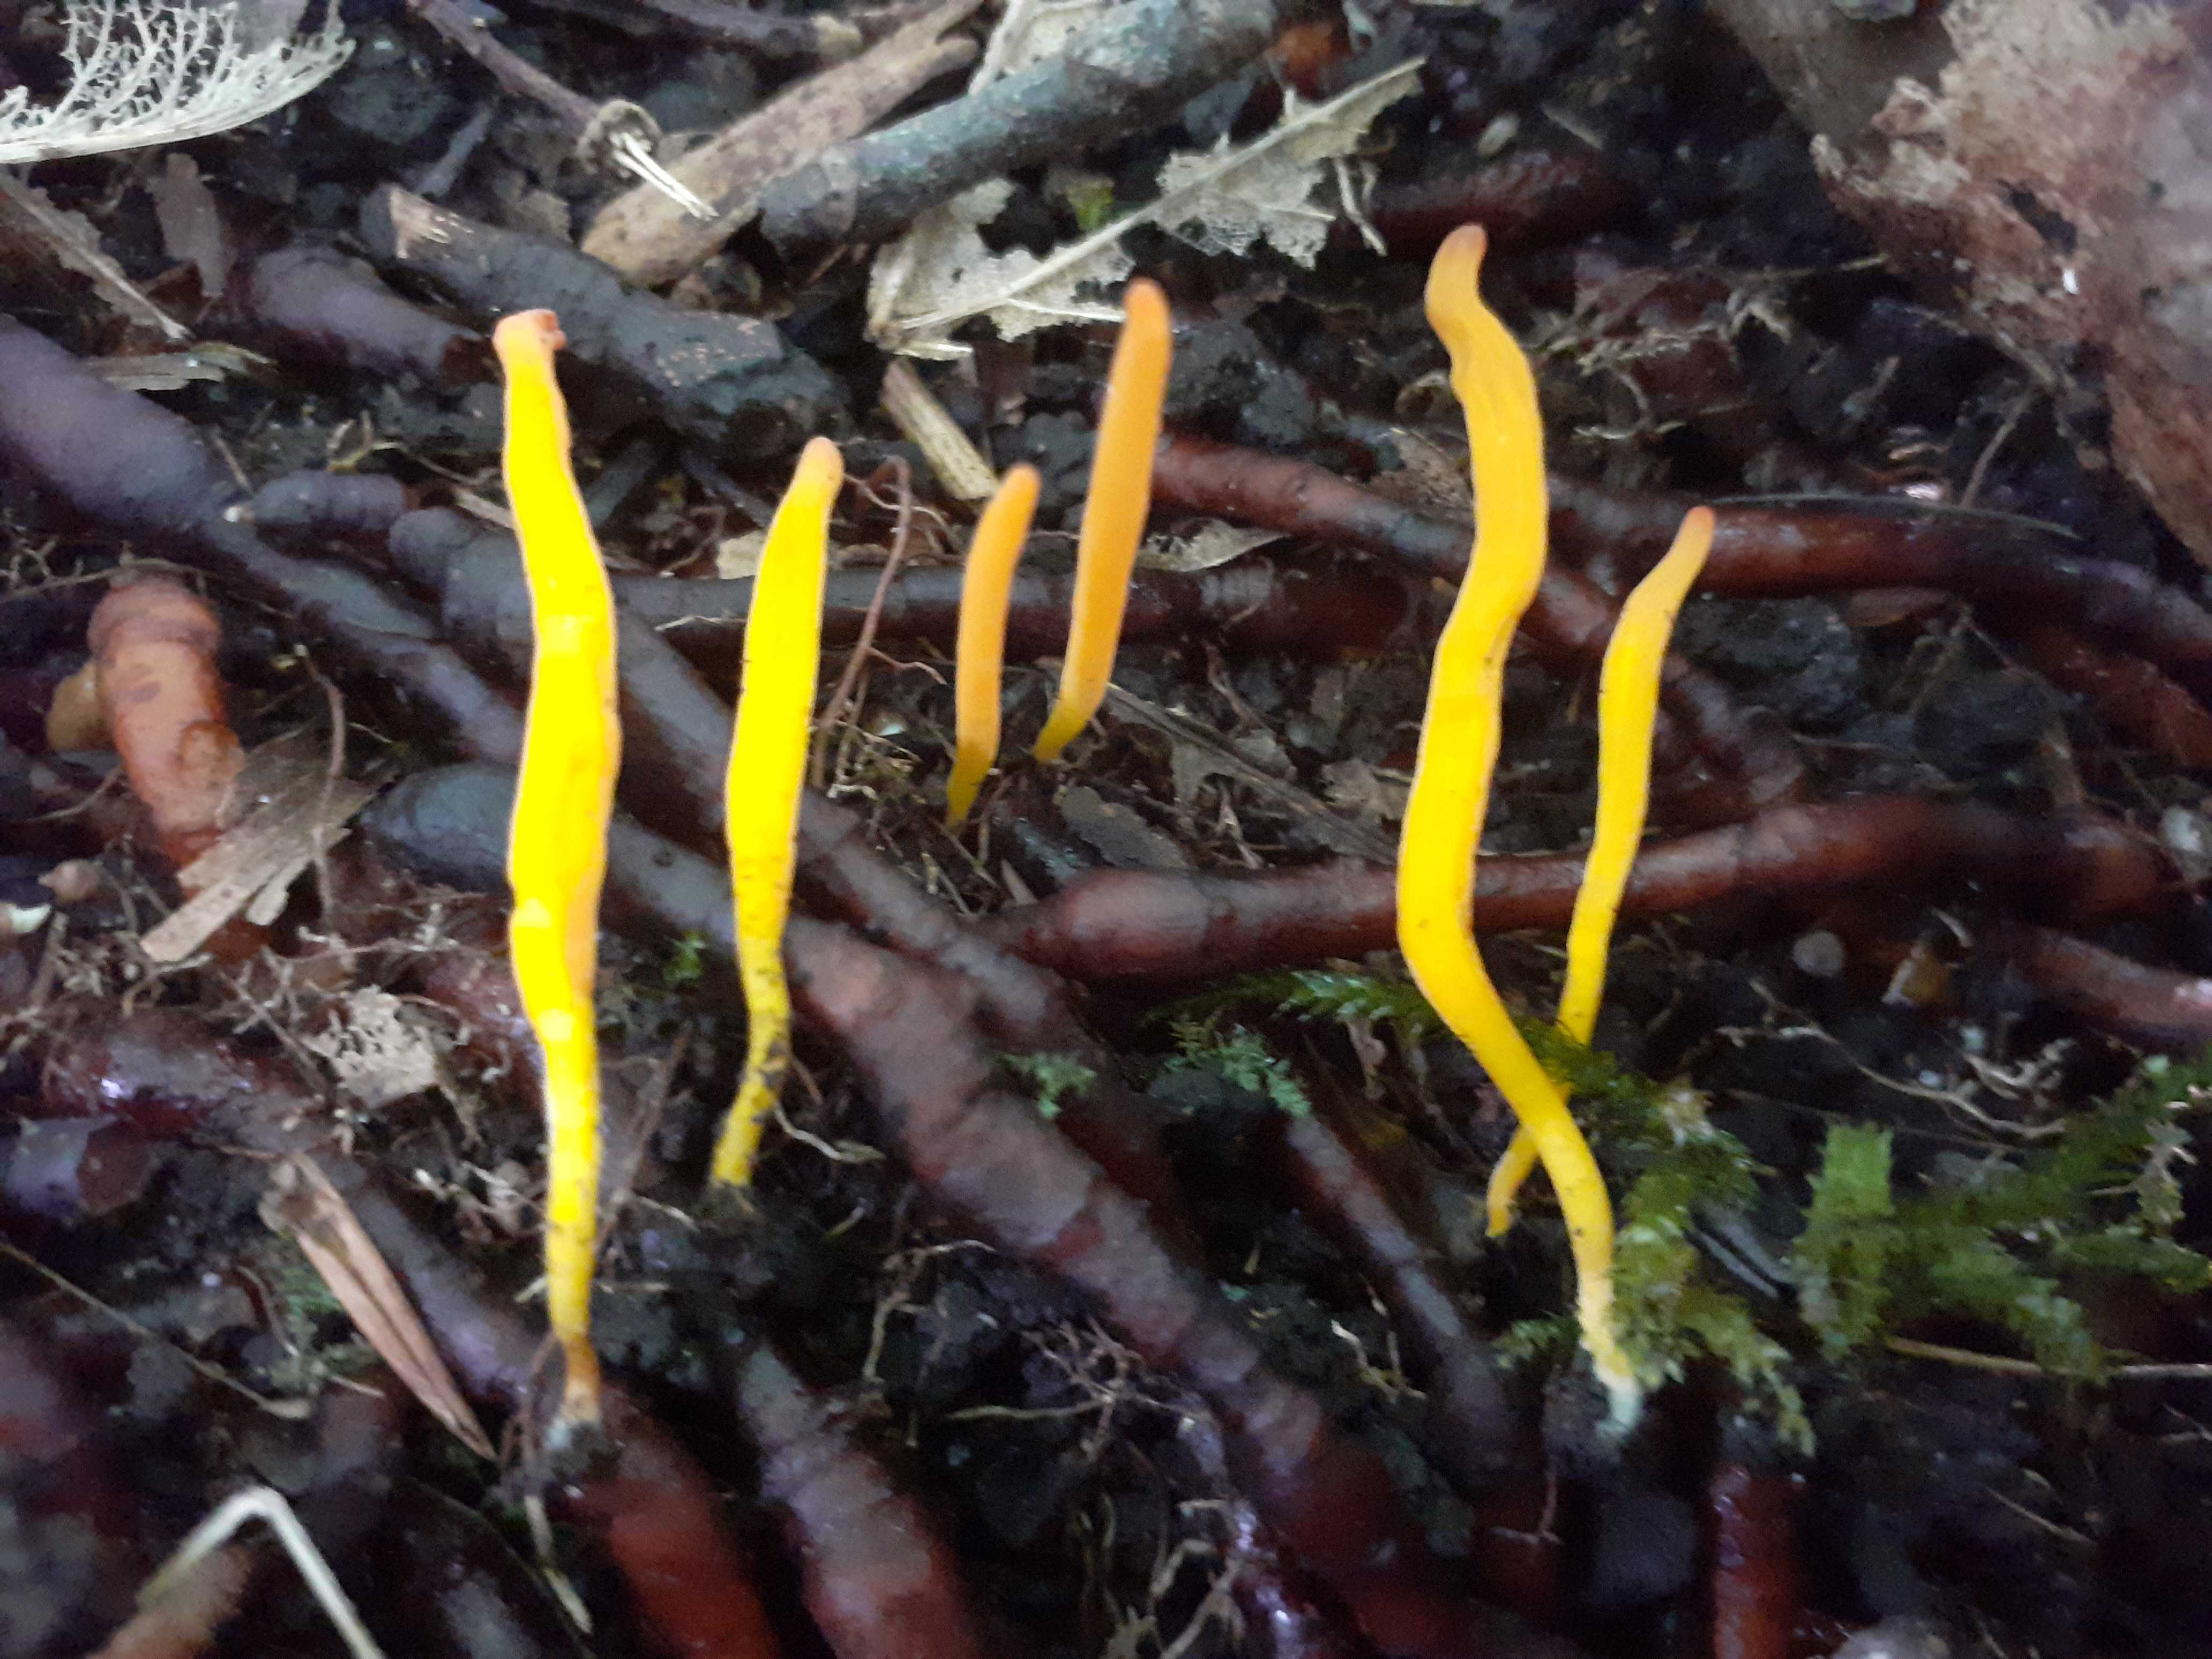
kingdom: Fungi
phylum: Basidiomycota
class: Agaricomycetes
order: Agaricales
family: Clavariaceae
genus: Clavulinopsis
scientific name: Clavulinopsis laeticolor
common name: flamme-køllesvamp
